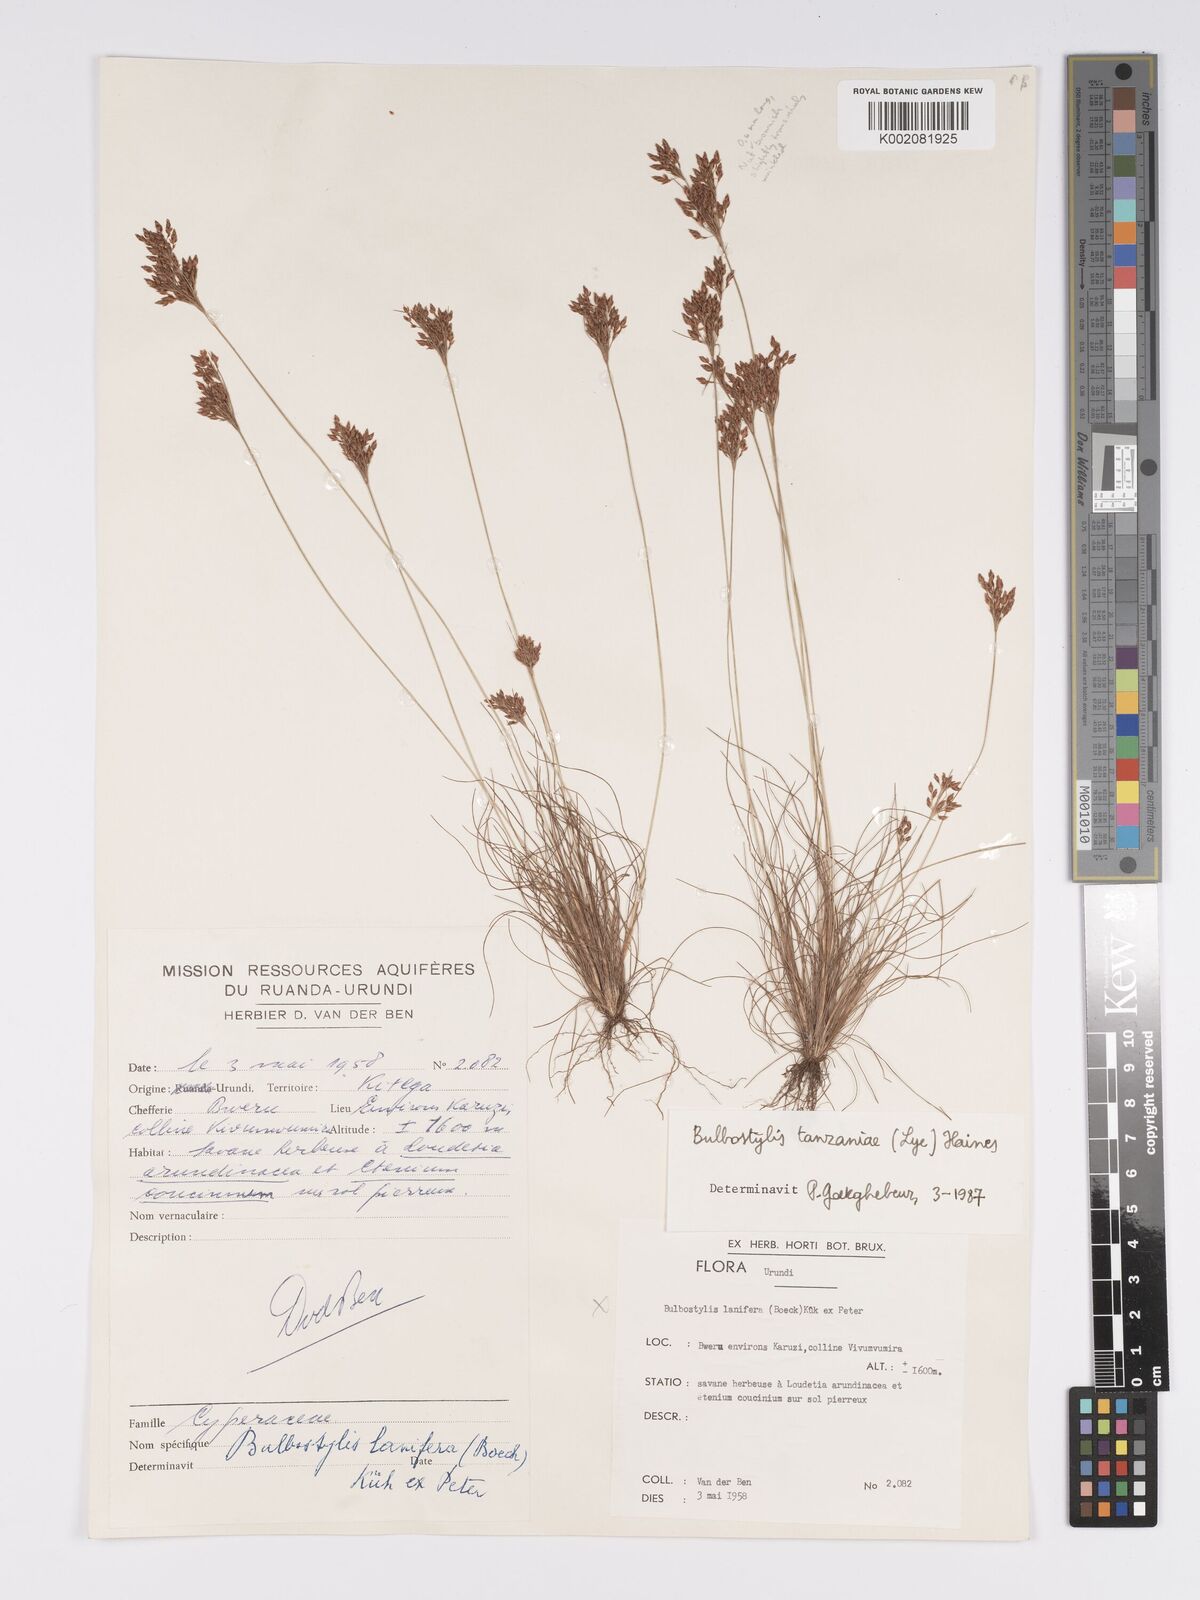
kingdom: Plantae
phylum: Tracheophyta
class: Liliopsida
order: Poales
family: Cyperaceae
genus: Bulbostylis
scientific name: Bulbostylis tanzaniae
